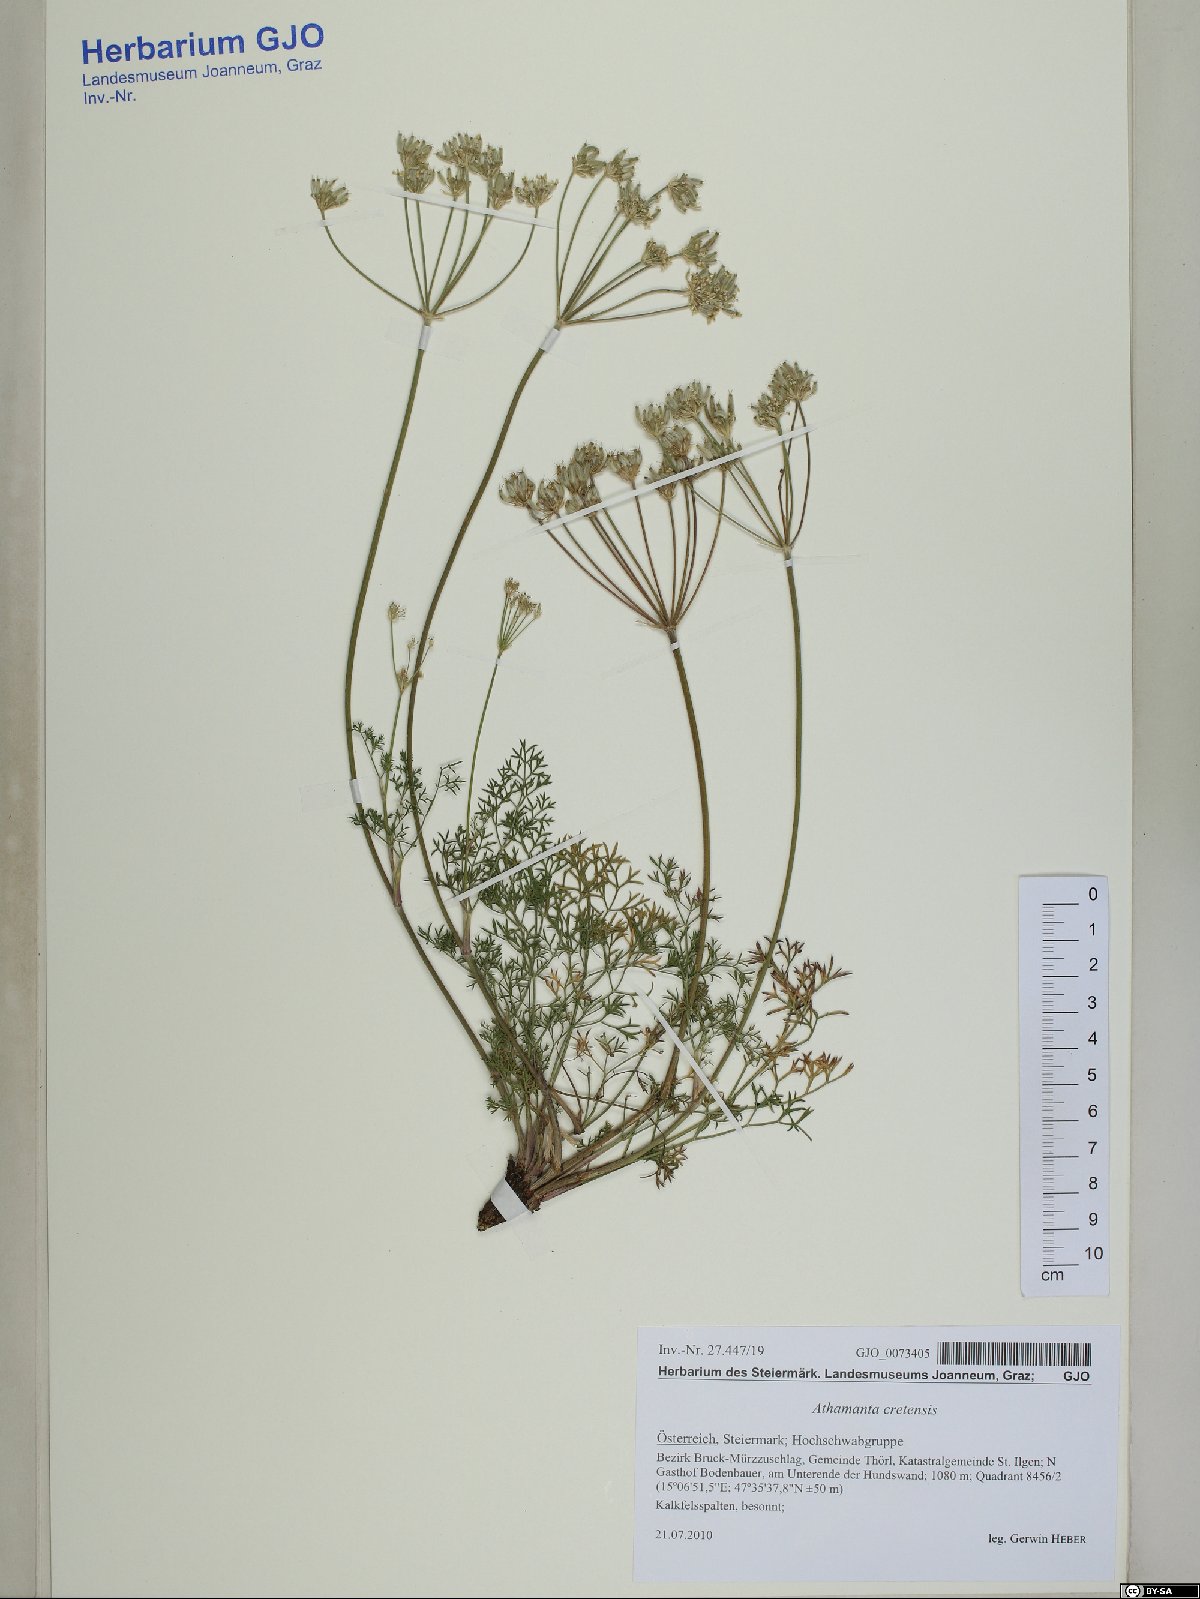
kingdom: Plantae
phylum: Tracheophyta
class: Magnoliopsida
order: Apiales
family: Apiaceae
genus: Athamanta
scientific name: Athamanta cretensis
